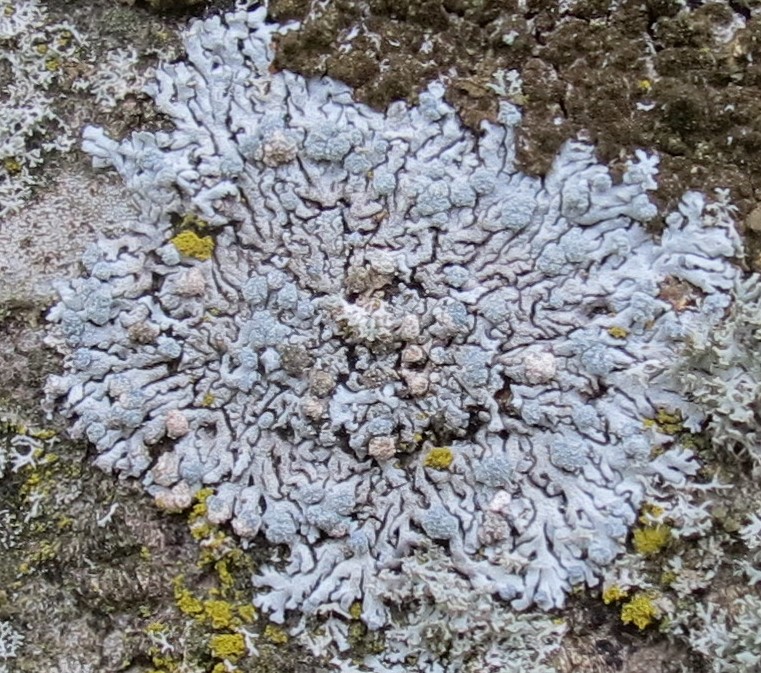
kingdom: Fungi
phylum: Ascomycota
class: Lecanoromycetes
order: Caliciales
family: Physciaceae
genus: Physcia
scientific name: Physcia caesia
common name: blågrå rosetlav
